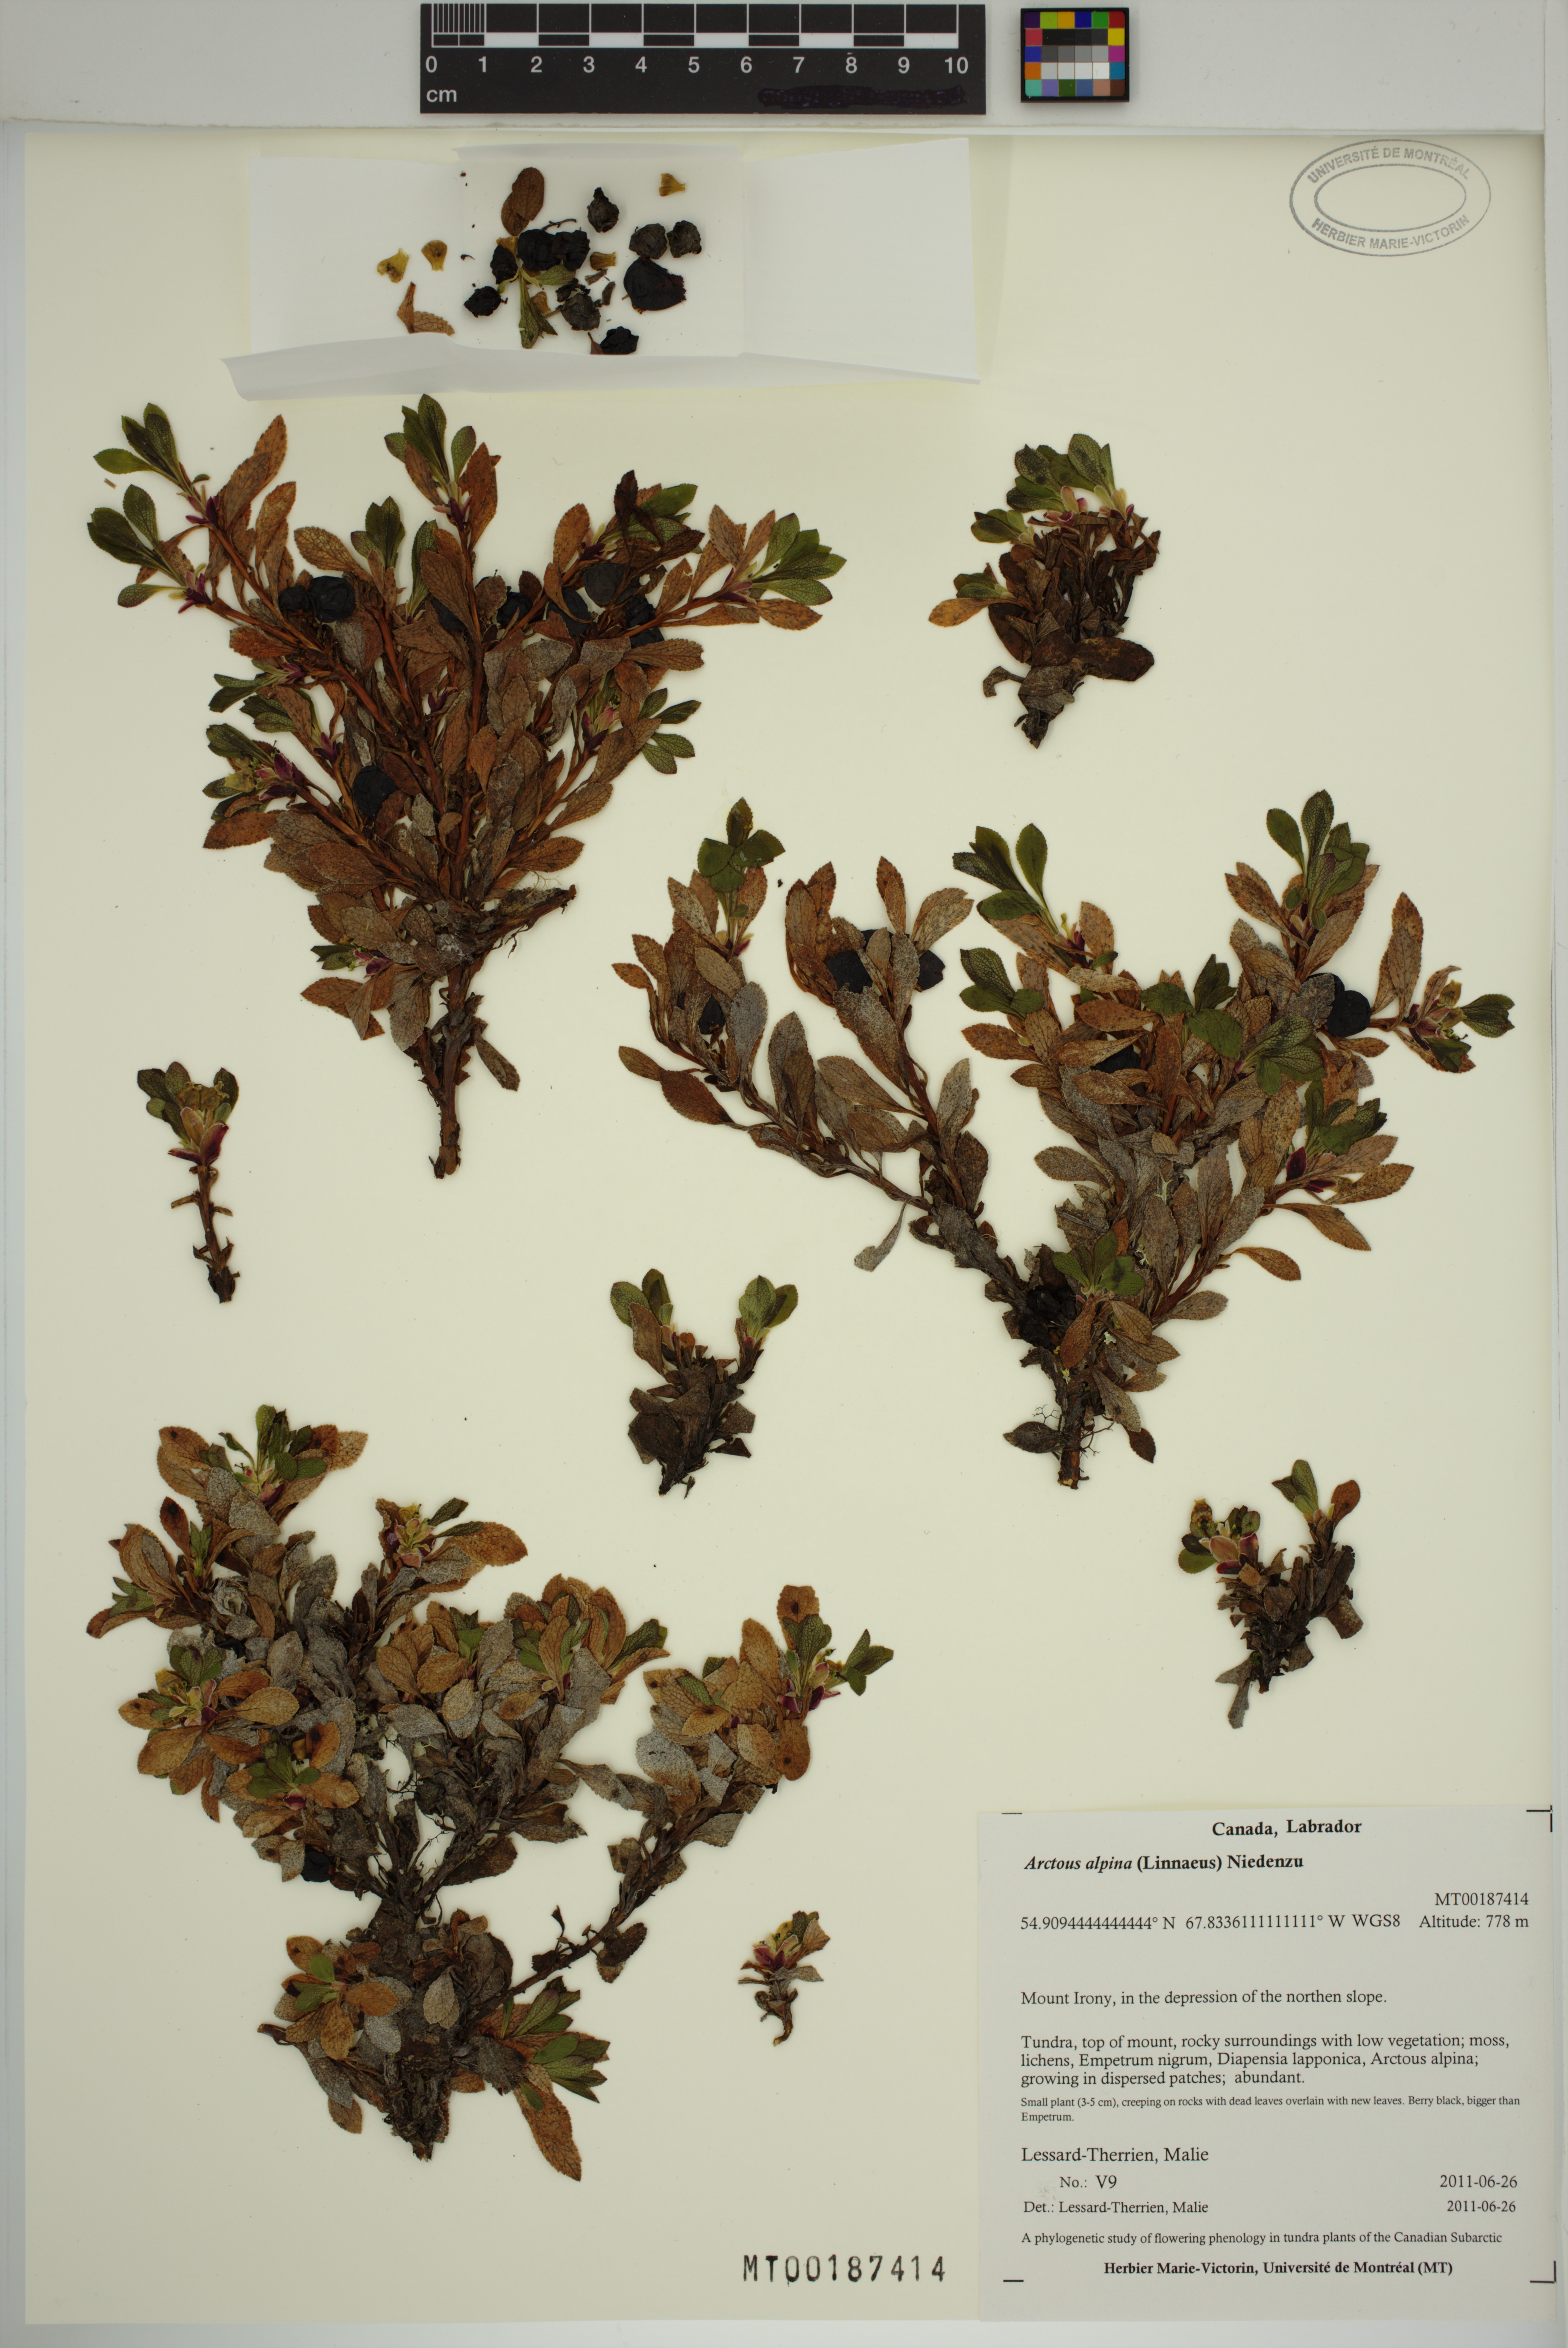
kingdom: Plantae
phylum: Tracheophyta
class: Magnoliopsida
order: Ericales
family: Ericaceae
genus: Arctostaphylos
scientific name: Arctostaphylos alpinus
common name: Alpine bearberry
